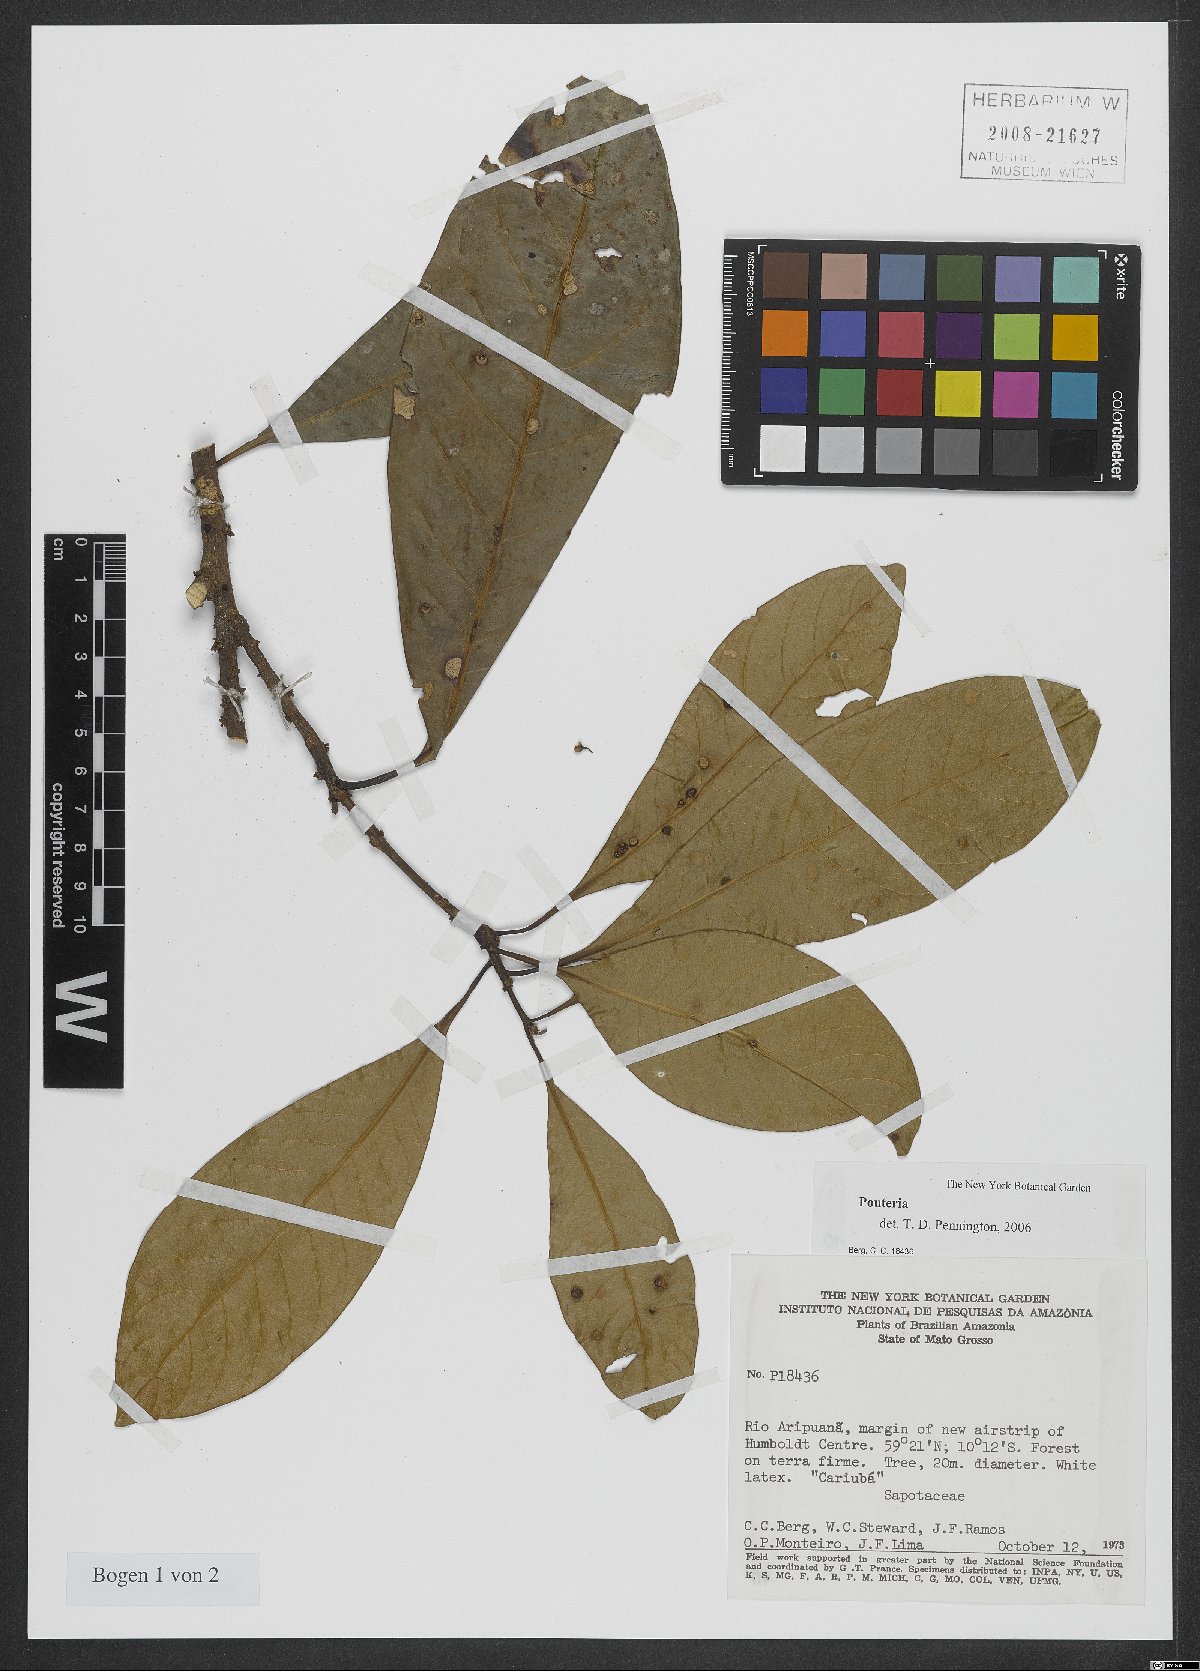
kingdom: Plantae
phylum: Tracheophyta
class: Magnoliopsida
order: Ericales
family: Sapotaceae
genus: Pouteria
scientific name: Pouteria
